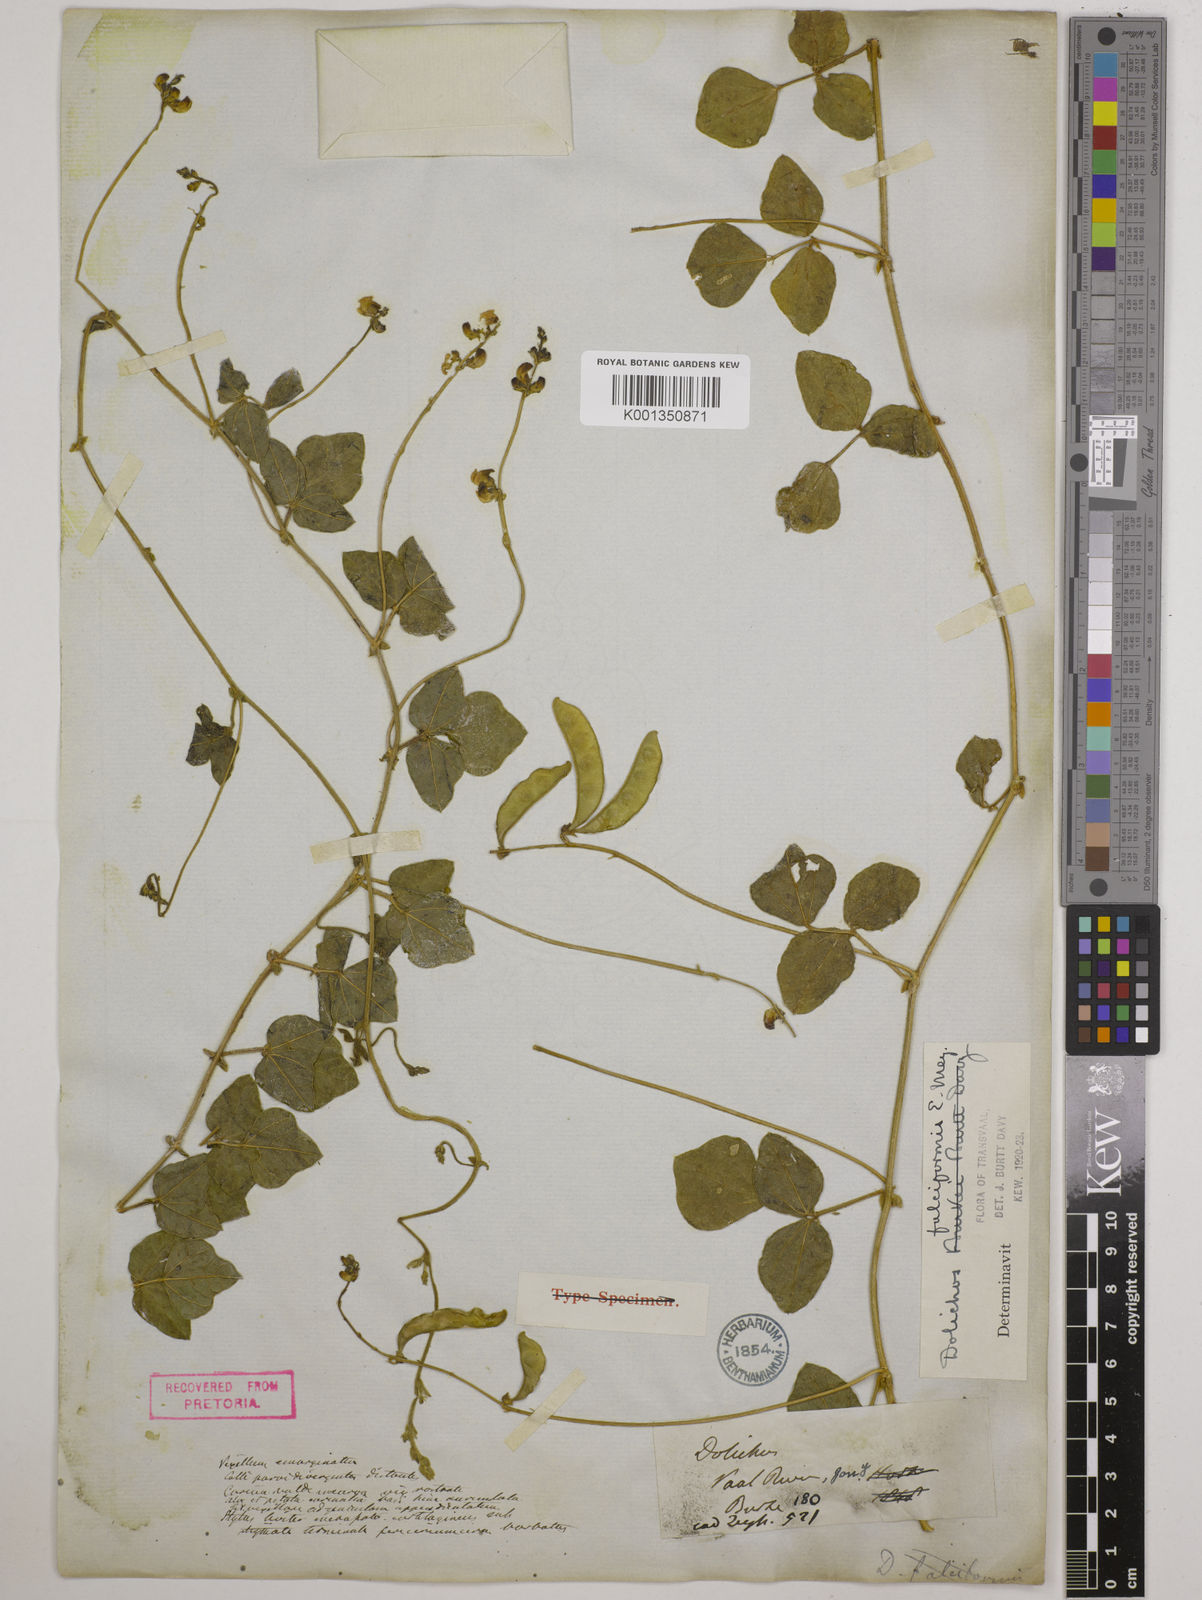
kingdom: Plantae
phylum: Tracheophyta
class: Magnoliopsida
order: Fabales
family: Fabaceae
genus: Dolichos
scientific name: Dolichos falciformis
